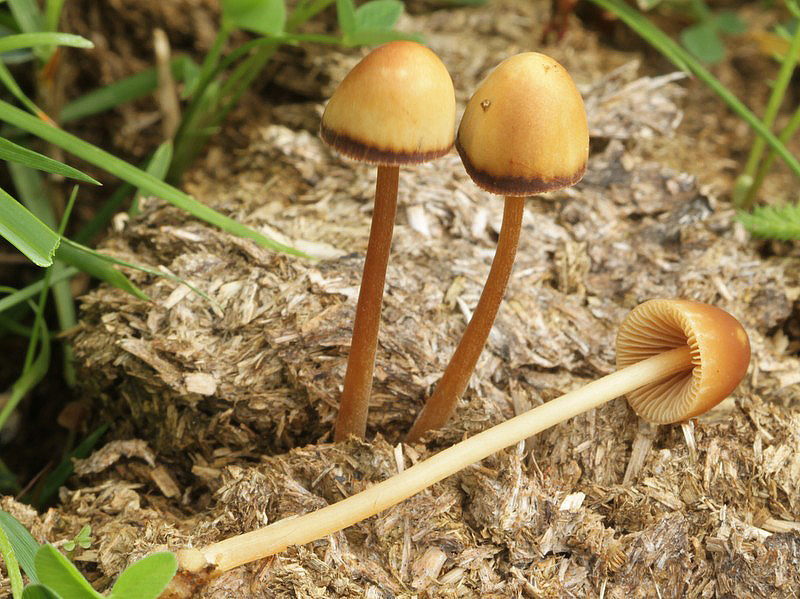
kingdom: Fungi
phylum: Basidiomycota
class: Agaricomycetes
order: Agaricales
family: Bolbitiaceae
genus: Conocybe
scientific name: Conocybe pubescens
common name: gødnings-keglehat
